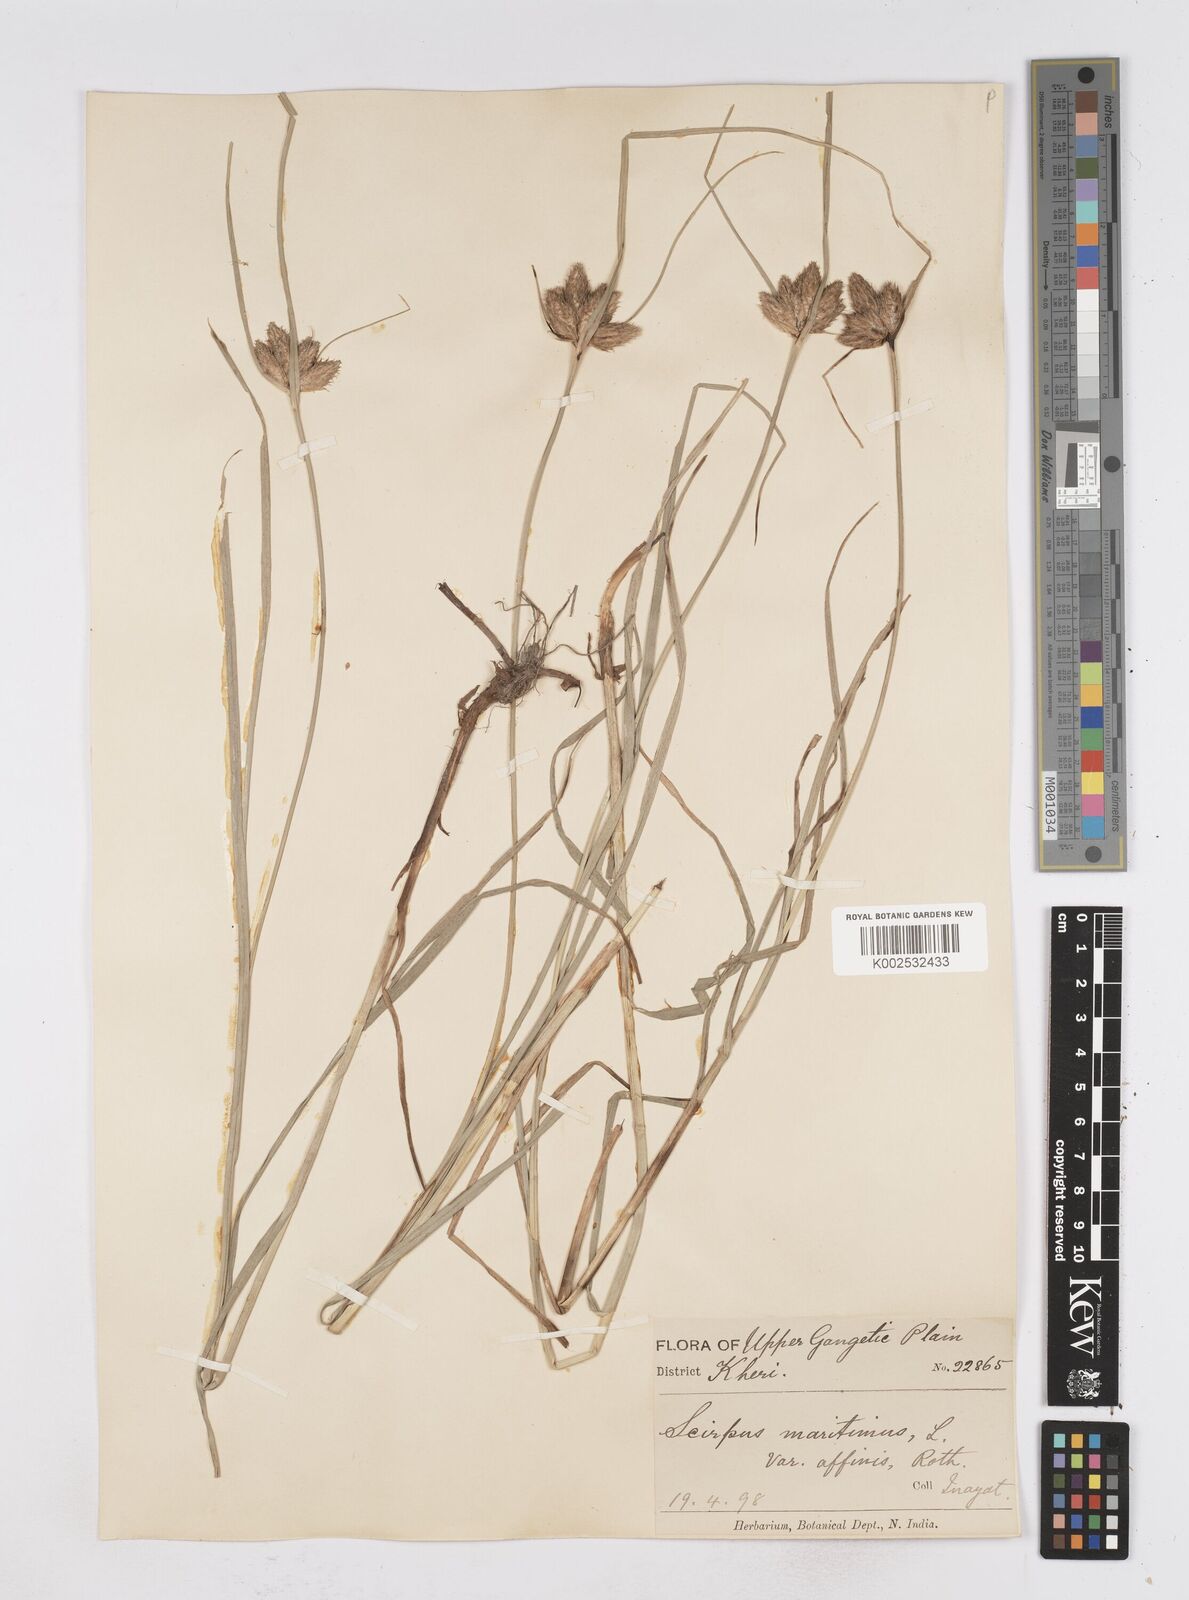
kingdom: Plantae
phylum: Tracheophyta
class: Liliopsida
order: Poales
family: Cyperaceae
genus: Bolboschoenus
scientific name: Bolboschoenus maritimus
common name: Sea club-rush
